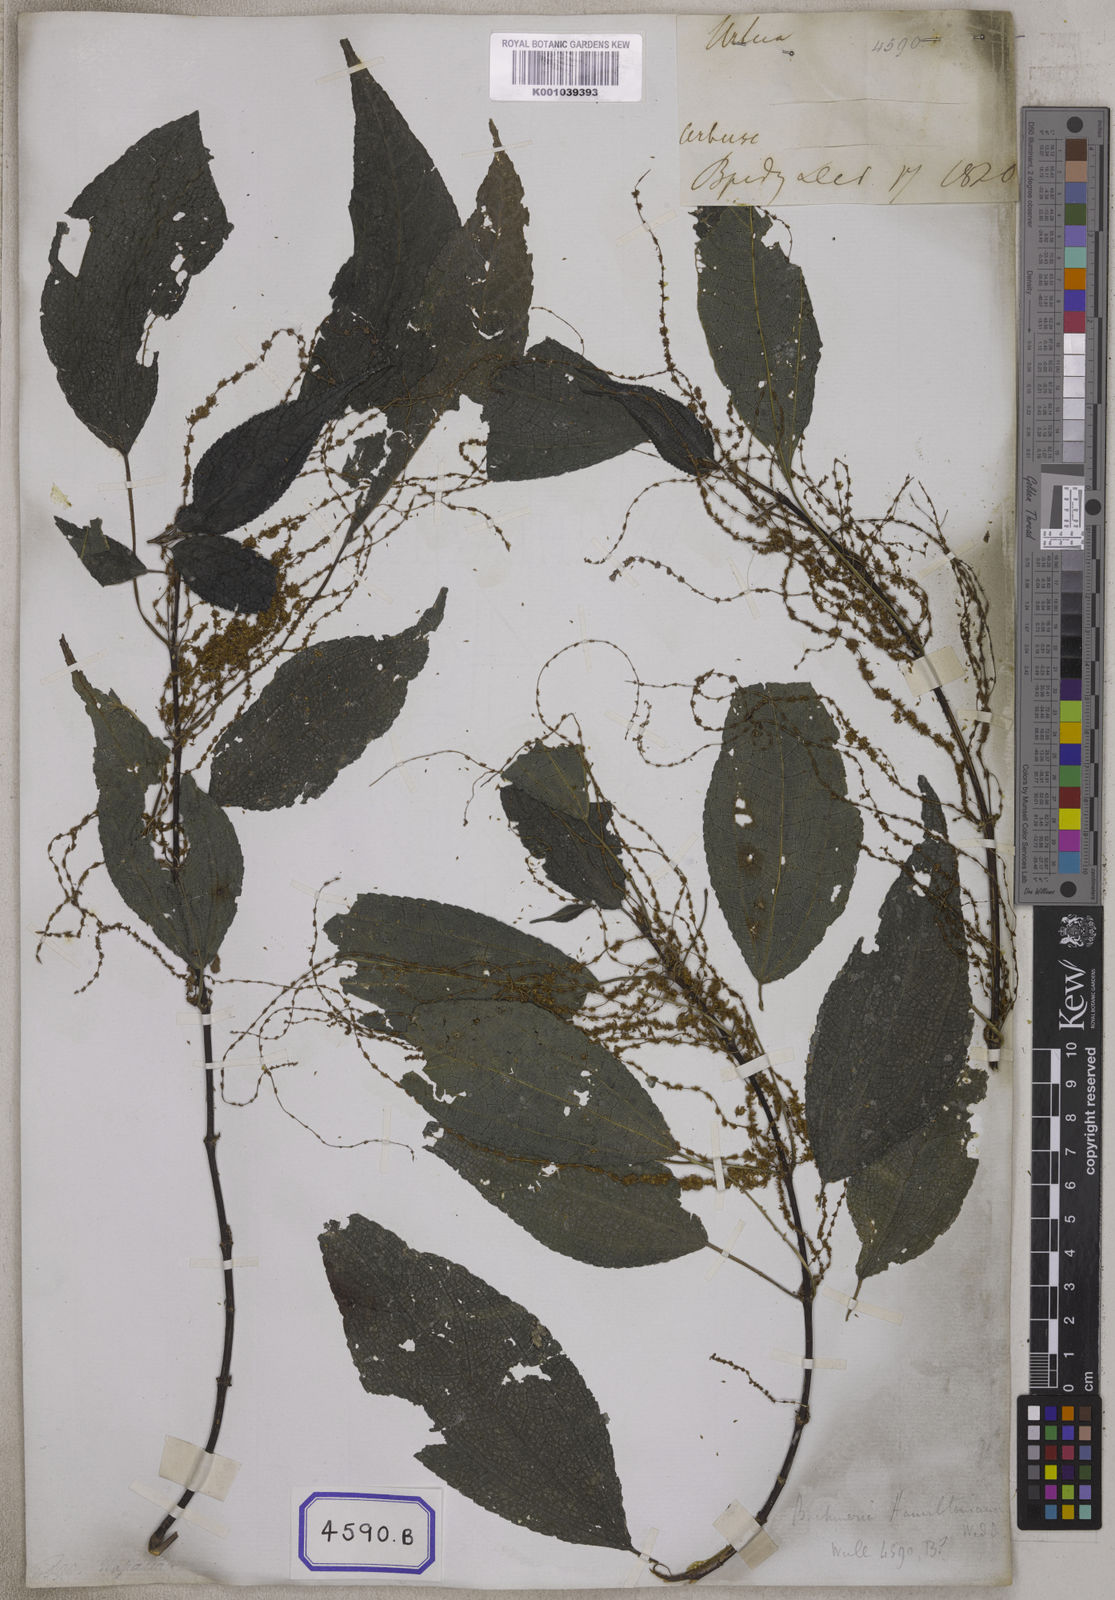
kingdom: Plantae
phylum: Tracheophyta
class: Magnoliopsida
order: Rosales
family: Urticaceae
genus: Boehmeria
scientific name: Boehmeria hamiltoniana
